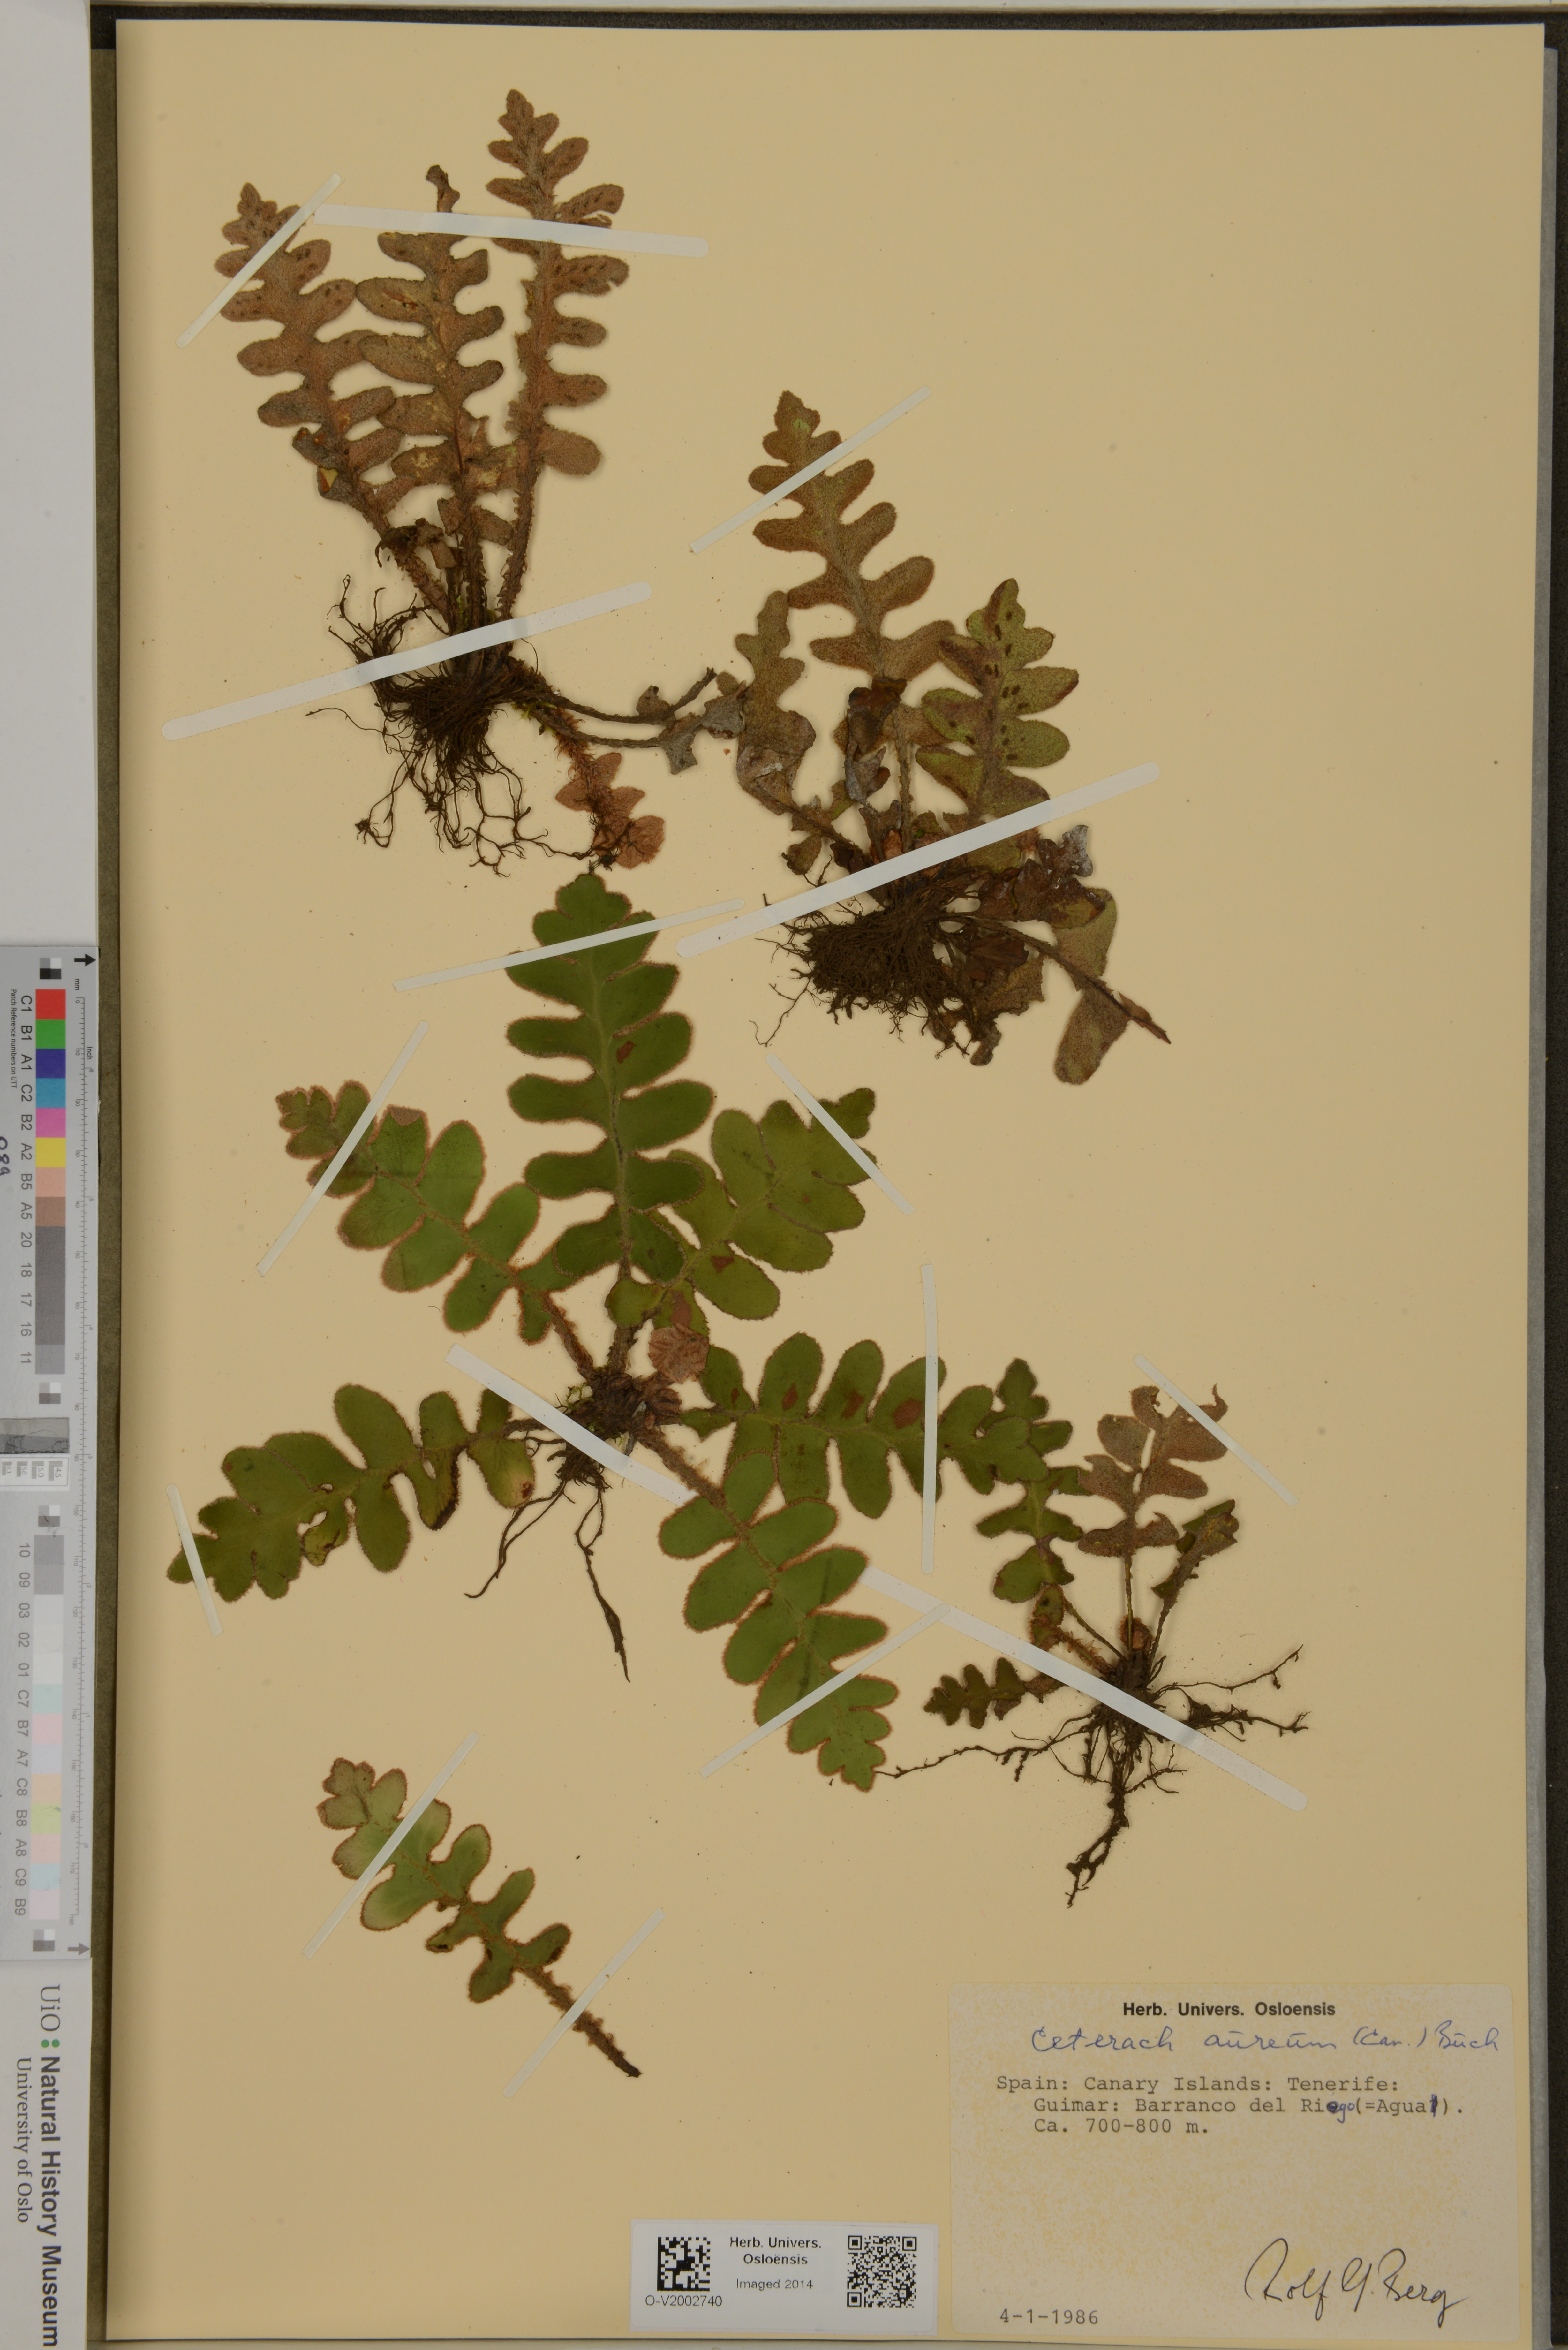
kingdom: Plantae
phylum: Tracheophyta
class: Polypodiopsida
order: Polypodiales
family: Aspleniaceae
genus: Asplenium
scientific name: Asplenium aureum
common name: Golden rustyback fern
